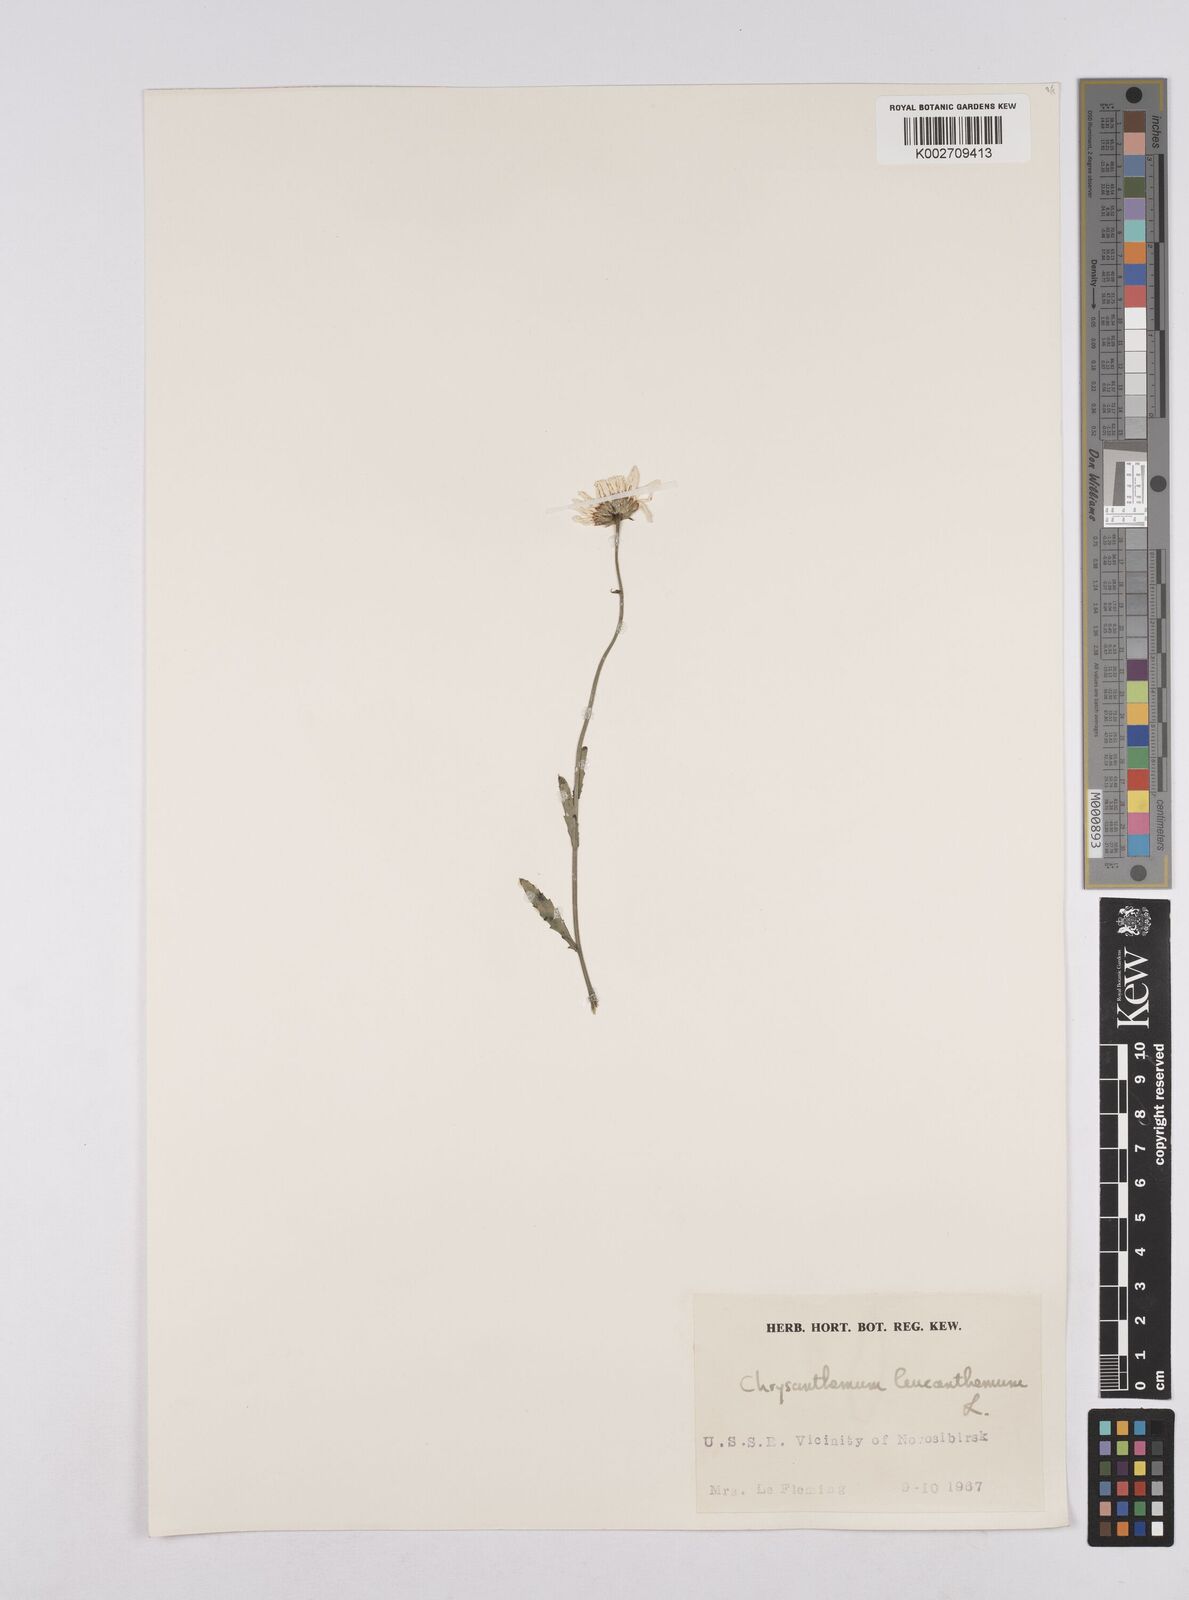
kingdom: Plantae
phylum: Tracheophyta
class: Magnoliopsida
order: Asterales
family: Asteraceae
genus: Leucanthemum
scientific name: Leucanthemum vulgare
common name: Oxeye daisy
